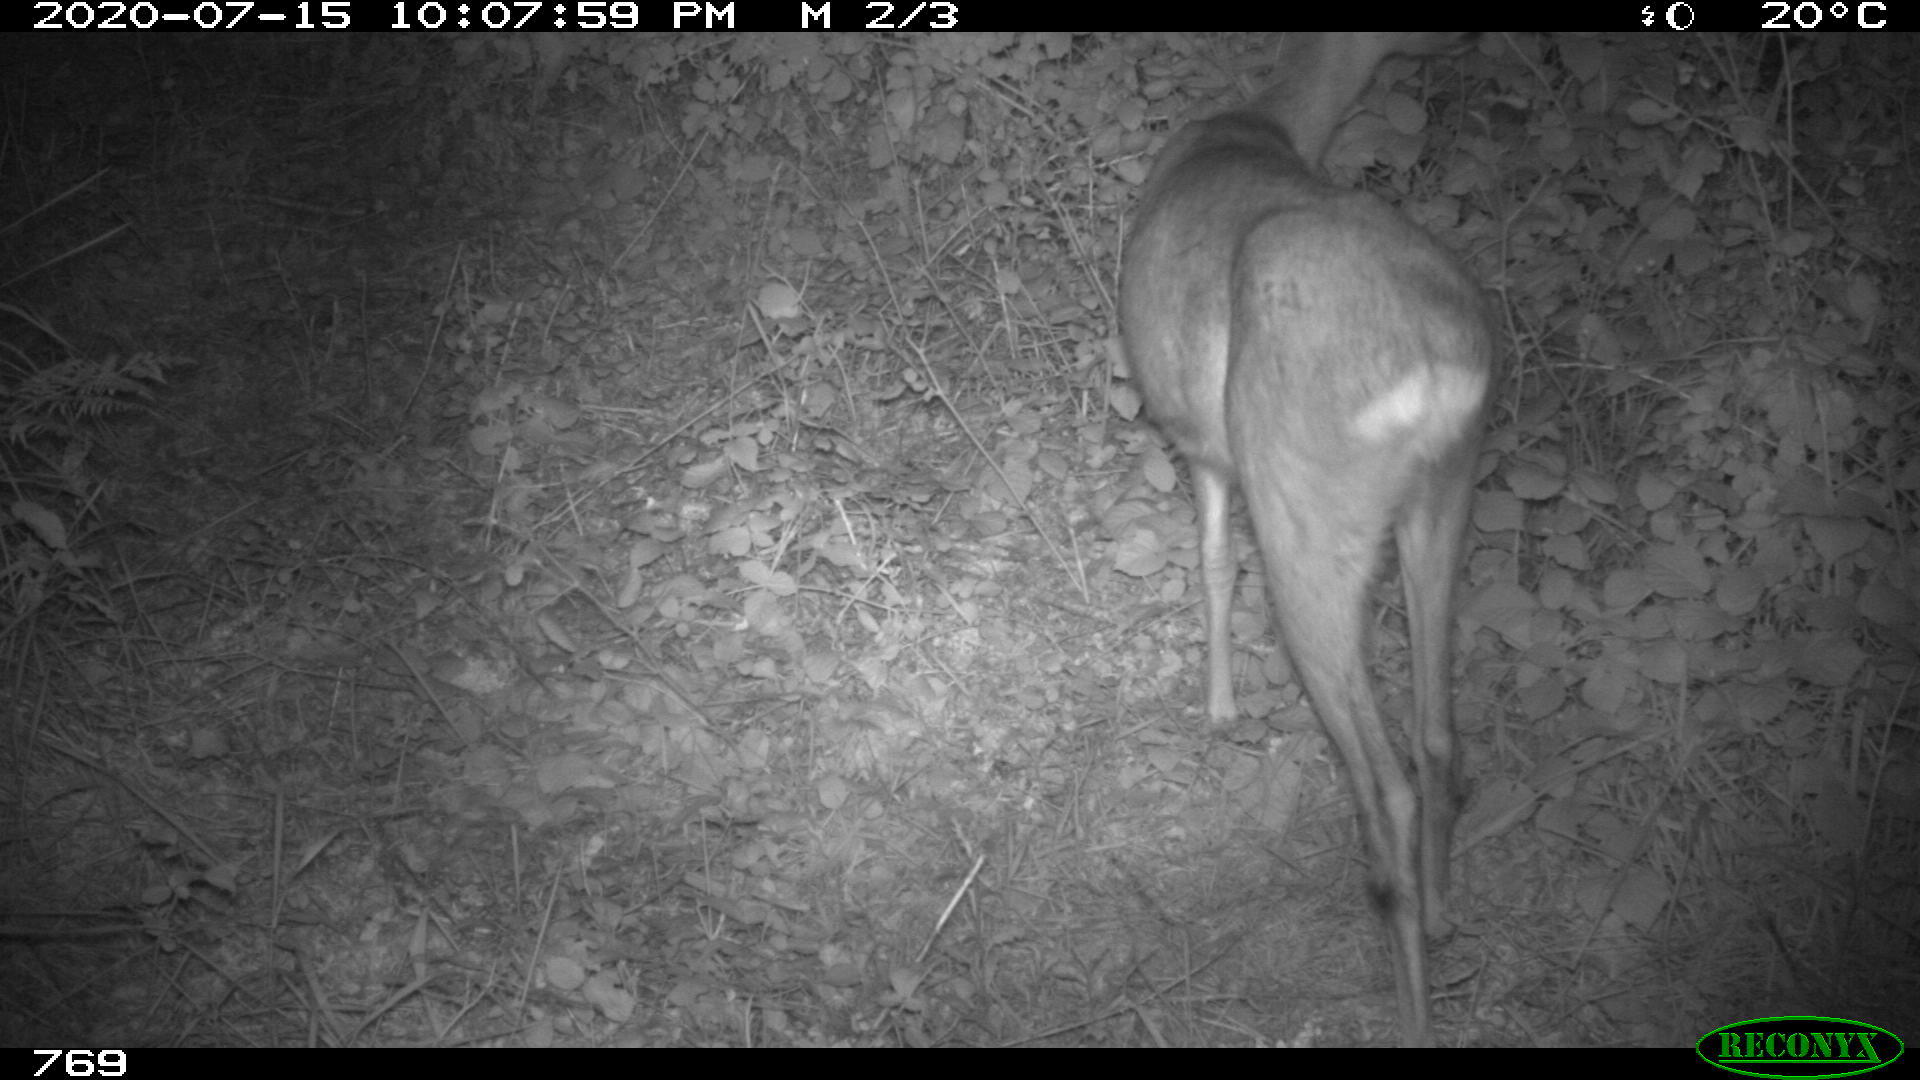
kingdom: Animalia
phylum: Chordata
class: Mammalia
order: Artiodactyla
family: Cervidae
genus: Capreolus
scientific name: Capreolus capreolus
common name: Western roe deer
